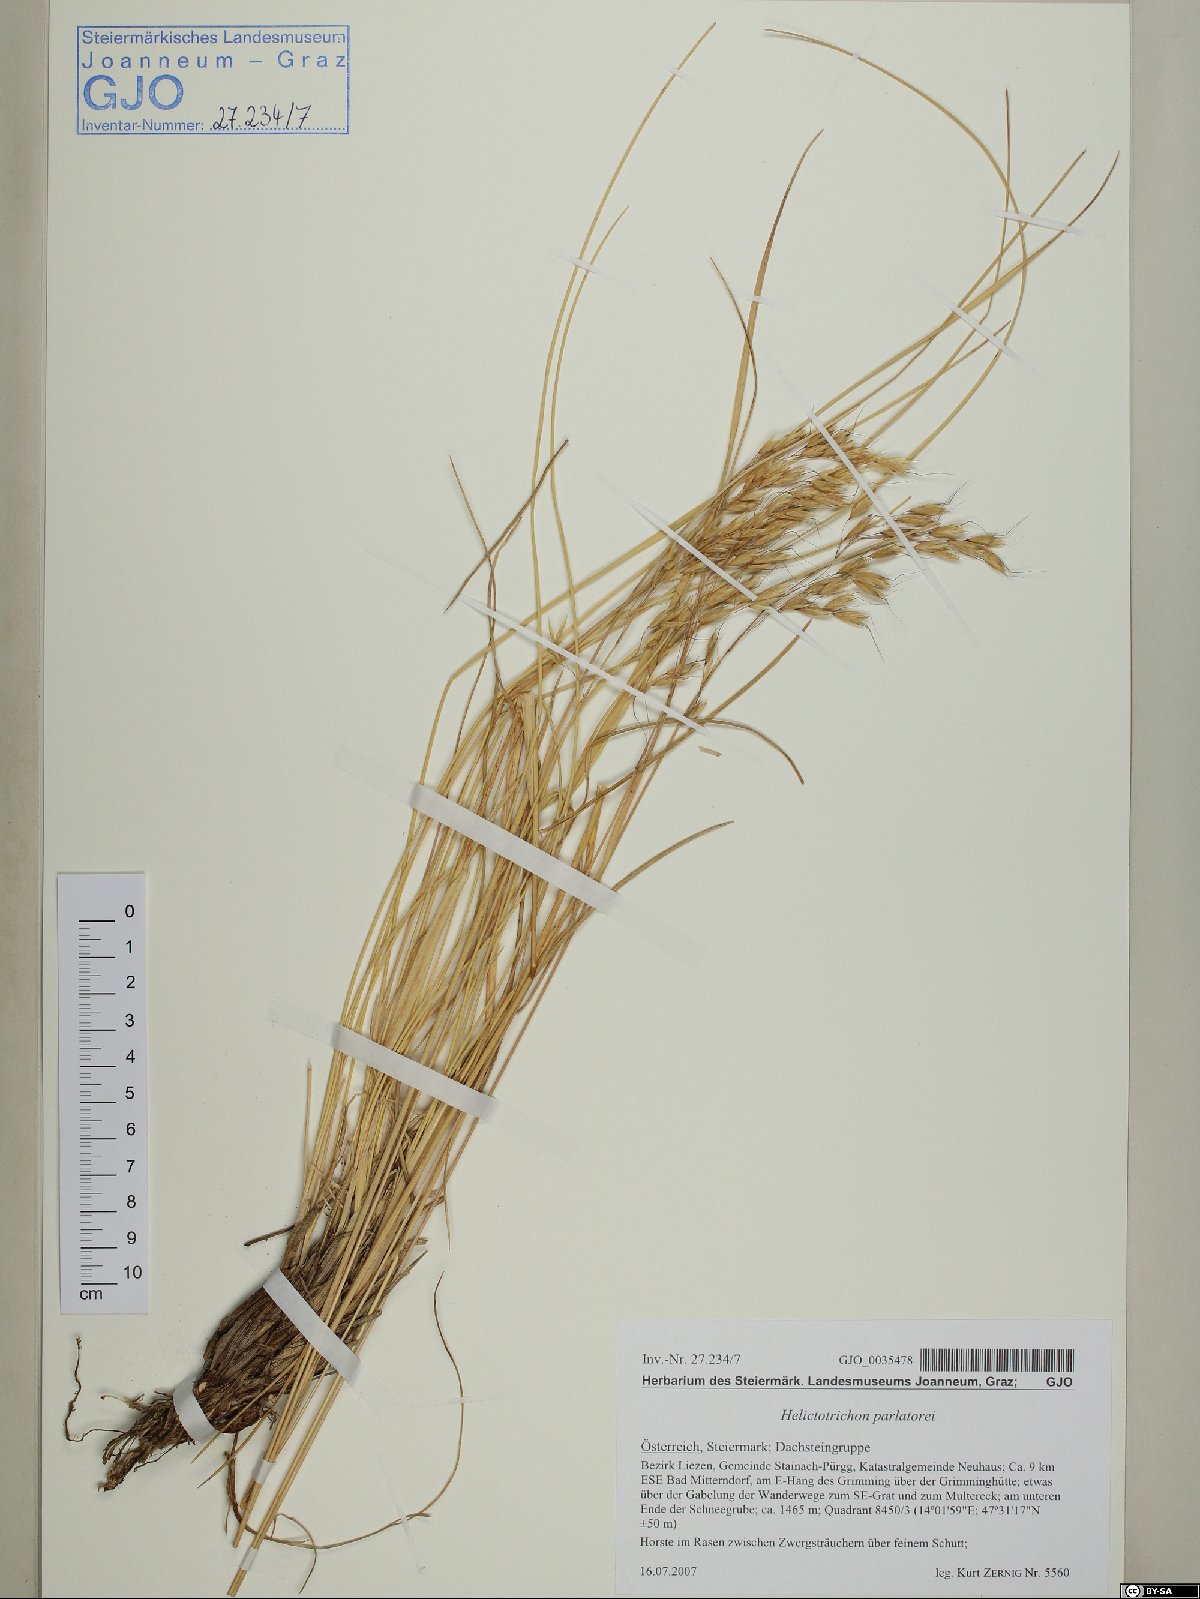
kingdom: Plantae
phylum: Tracheophyta
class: Liliopsida
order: Poales
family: Poaceae
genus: Helictotrichon
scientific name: Helictotrichon parlatorei
